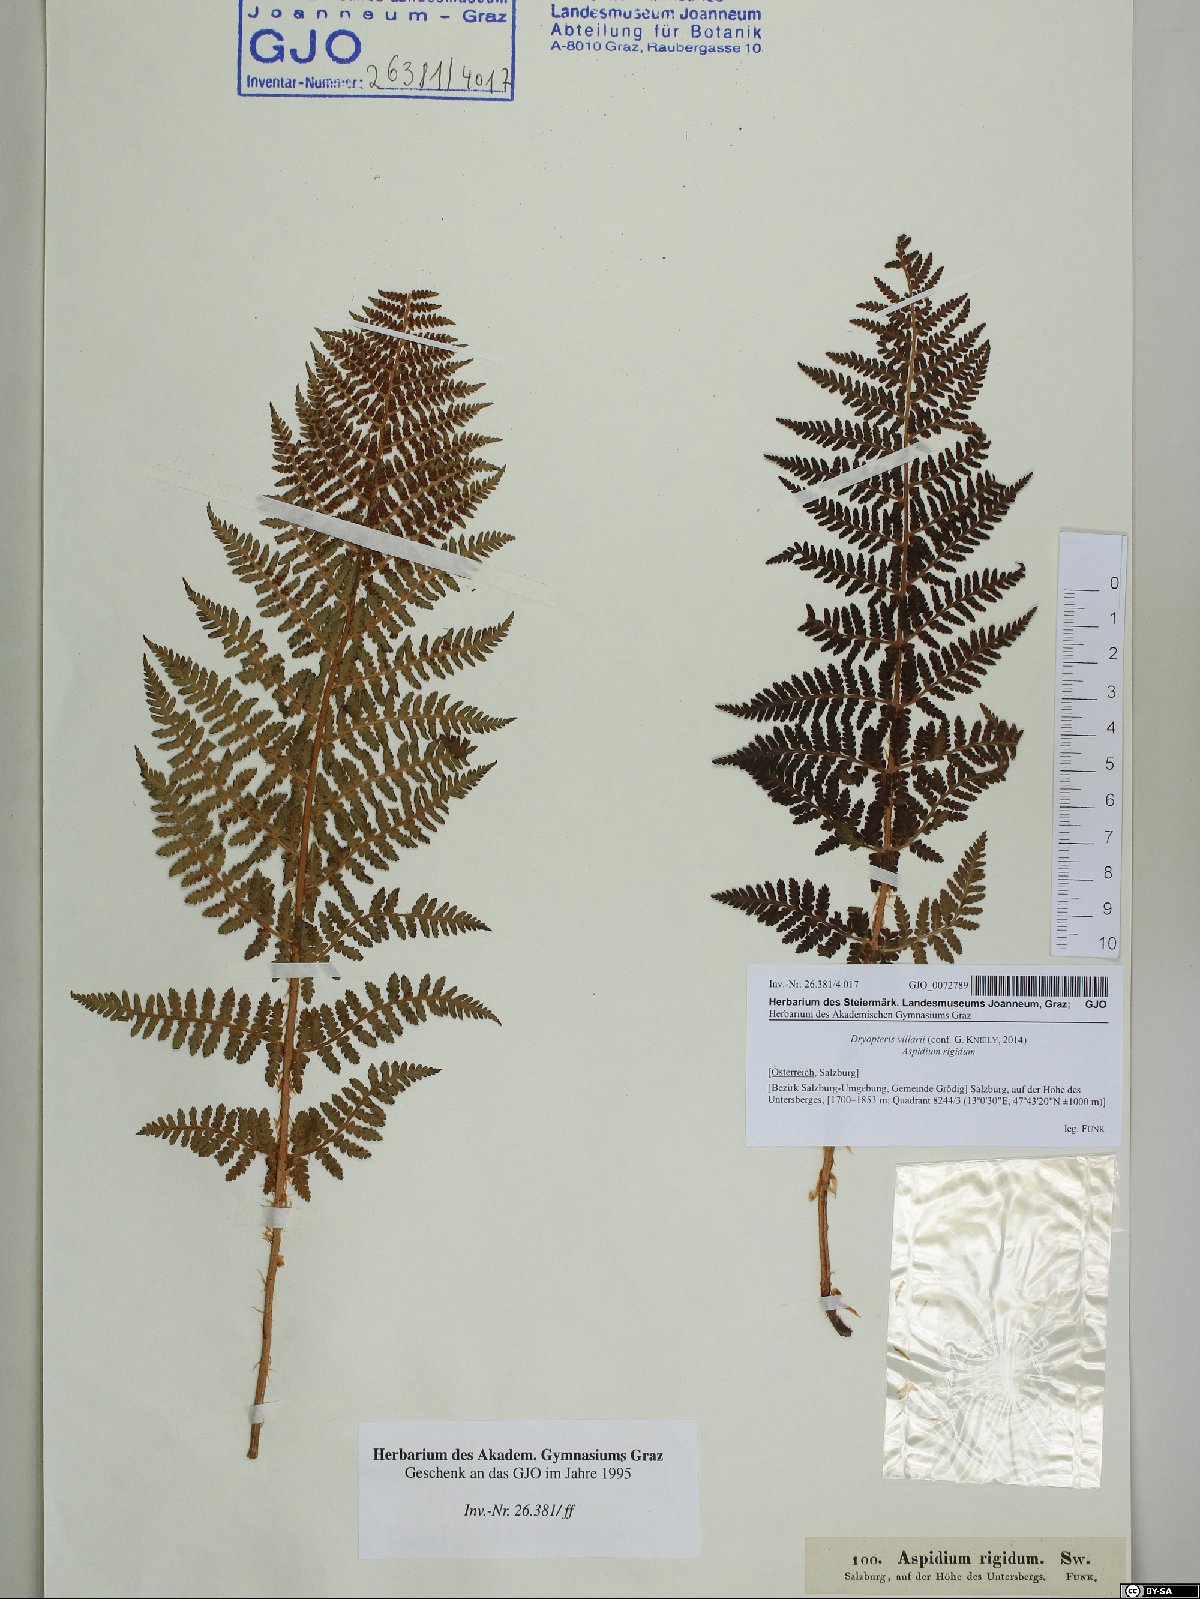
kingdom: Plantae
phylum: Tracheophyta
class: Polypodiopsida
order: Polypodiales
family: Dryopteridaceae
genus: Dryopteris
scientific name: Dryopteris villarii
